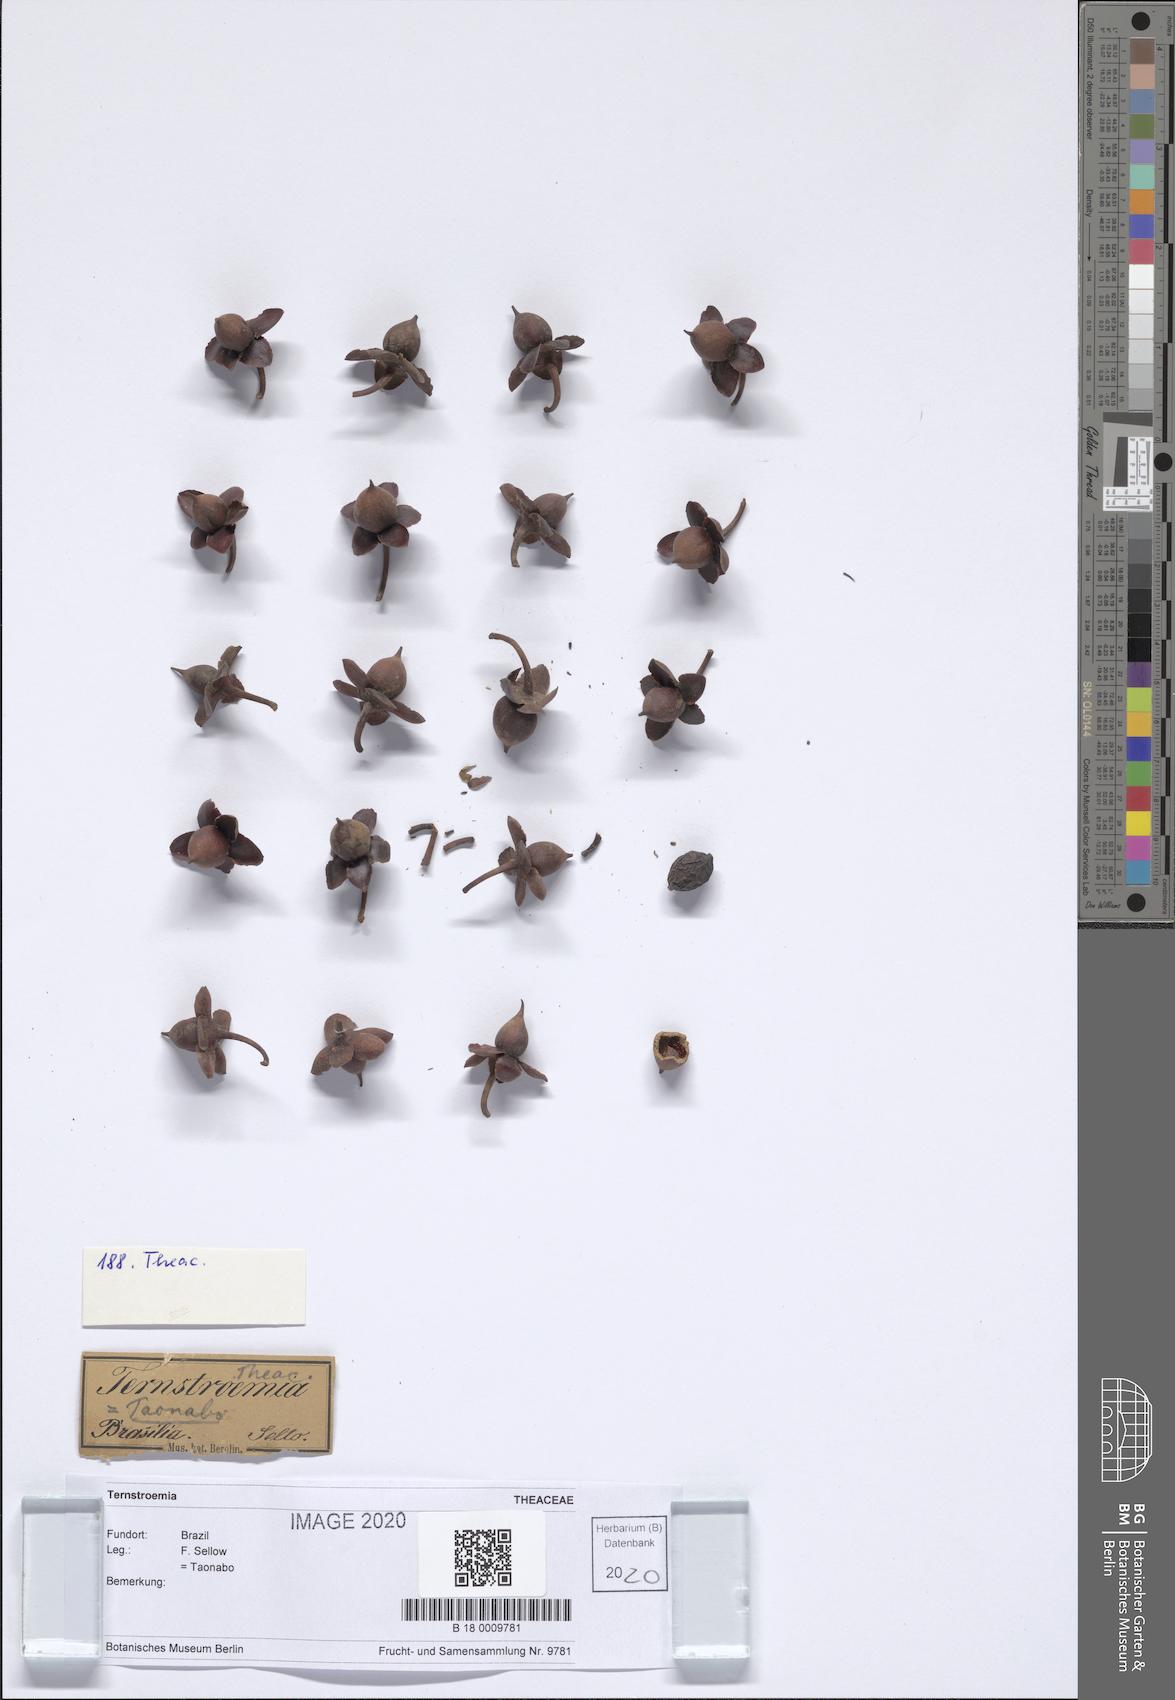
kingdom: Plantae
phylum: Tracheophyta
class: Magnoliopsida
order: Ericales
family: Pentaphylacaceae
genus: Ternstroemia
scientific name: Ternstroemia
